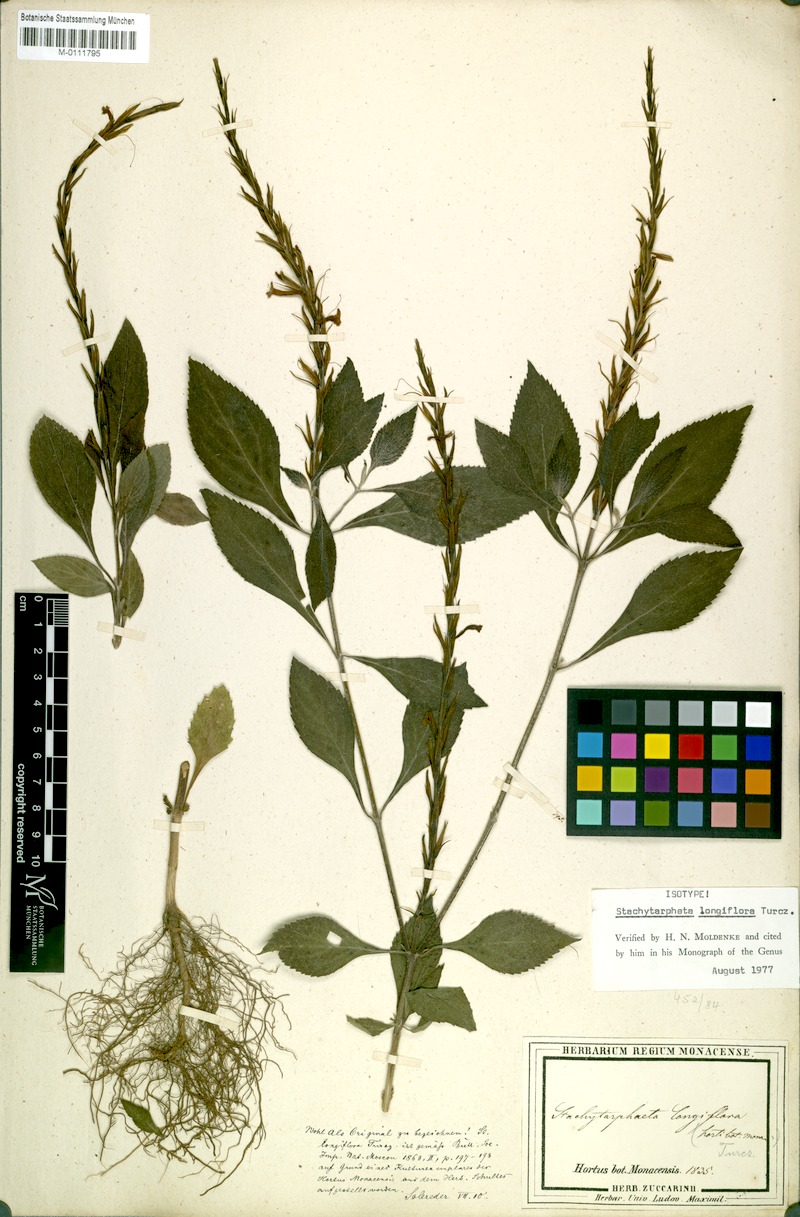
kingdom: Plantae
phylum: Tracheophyta
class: Magnoliopsida
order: Lamiales
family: Verbenaceae
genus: Stachytarpheta
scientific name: Stachytarpheta longiflora
